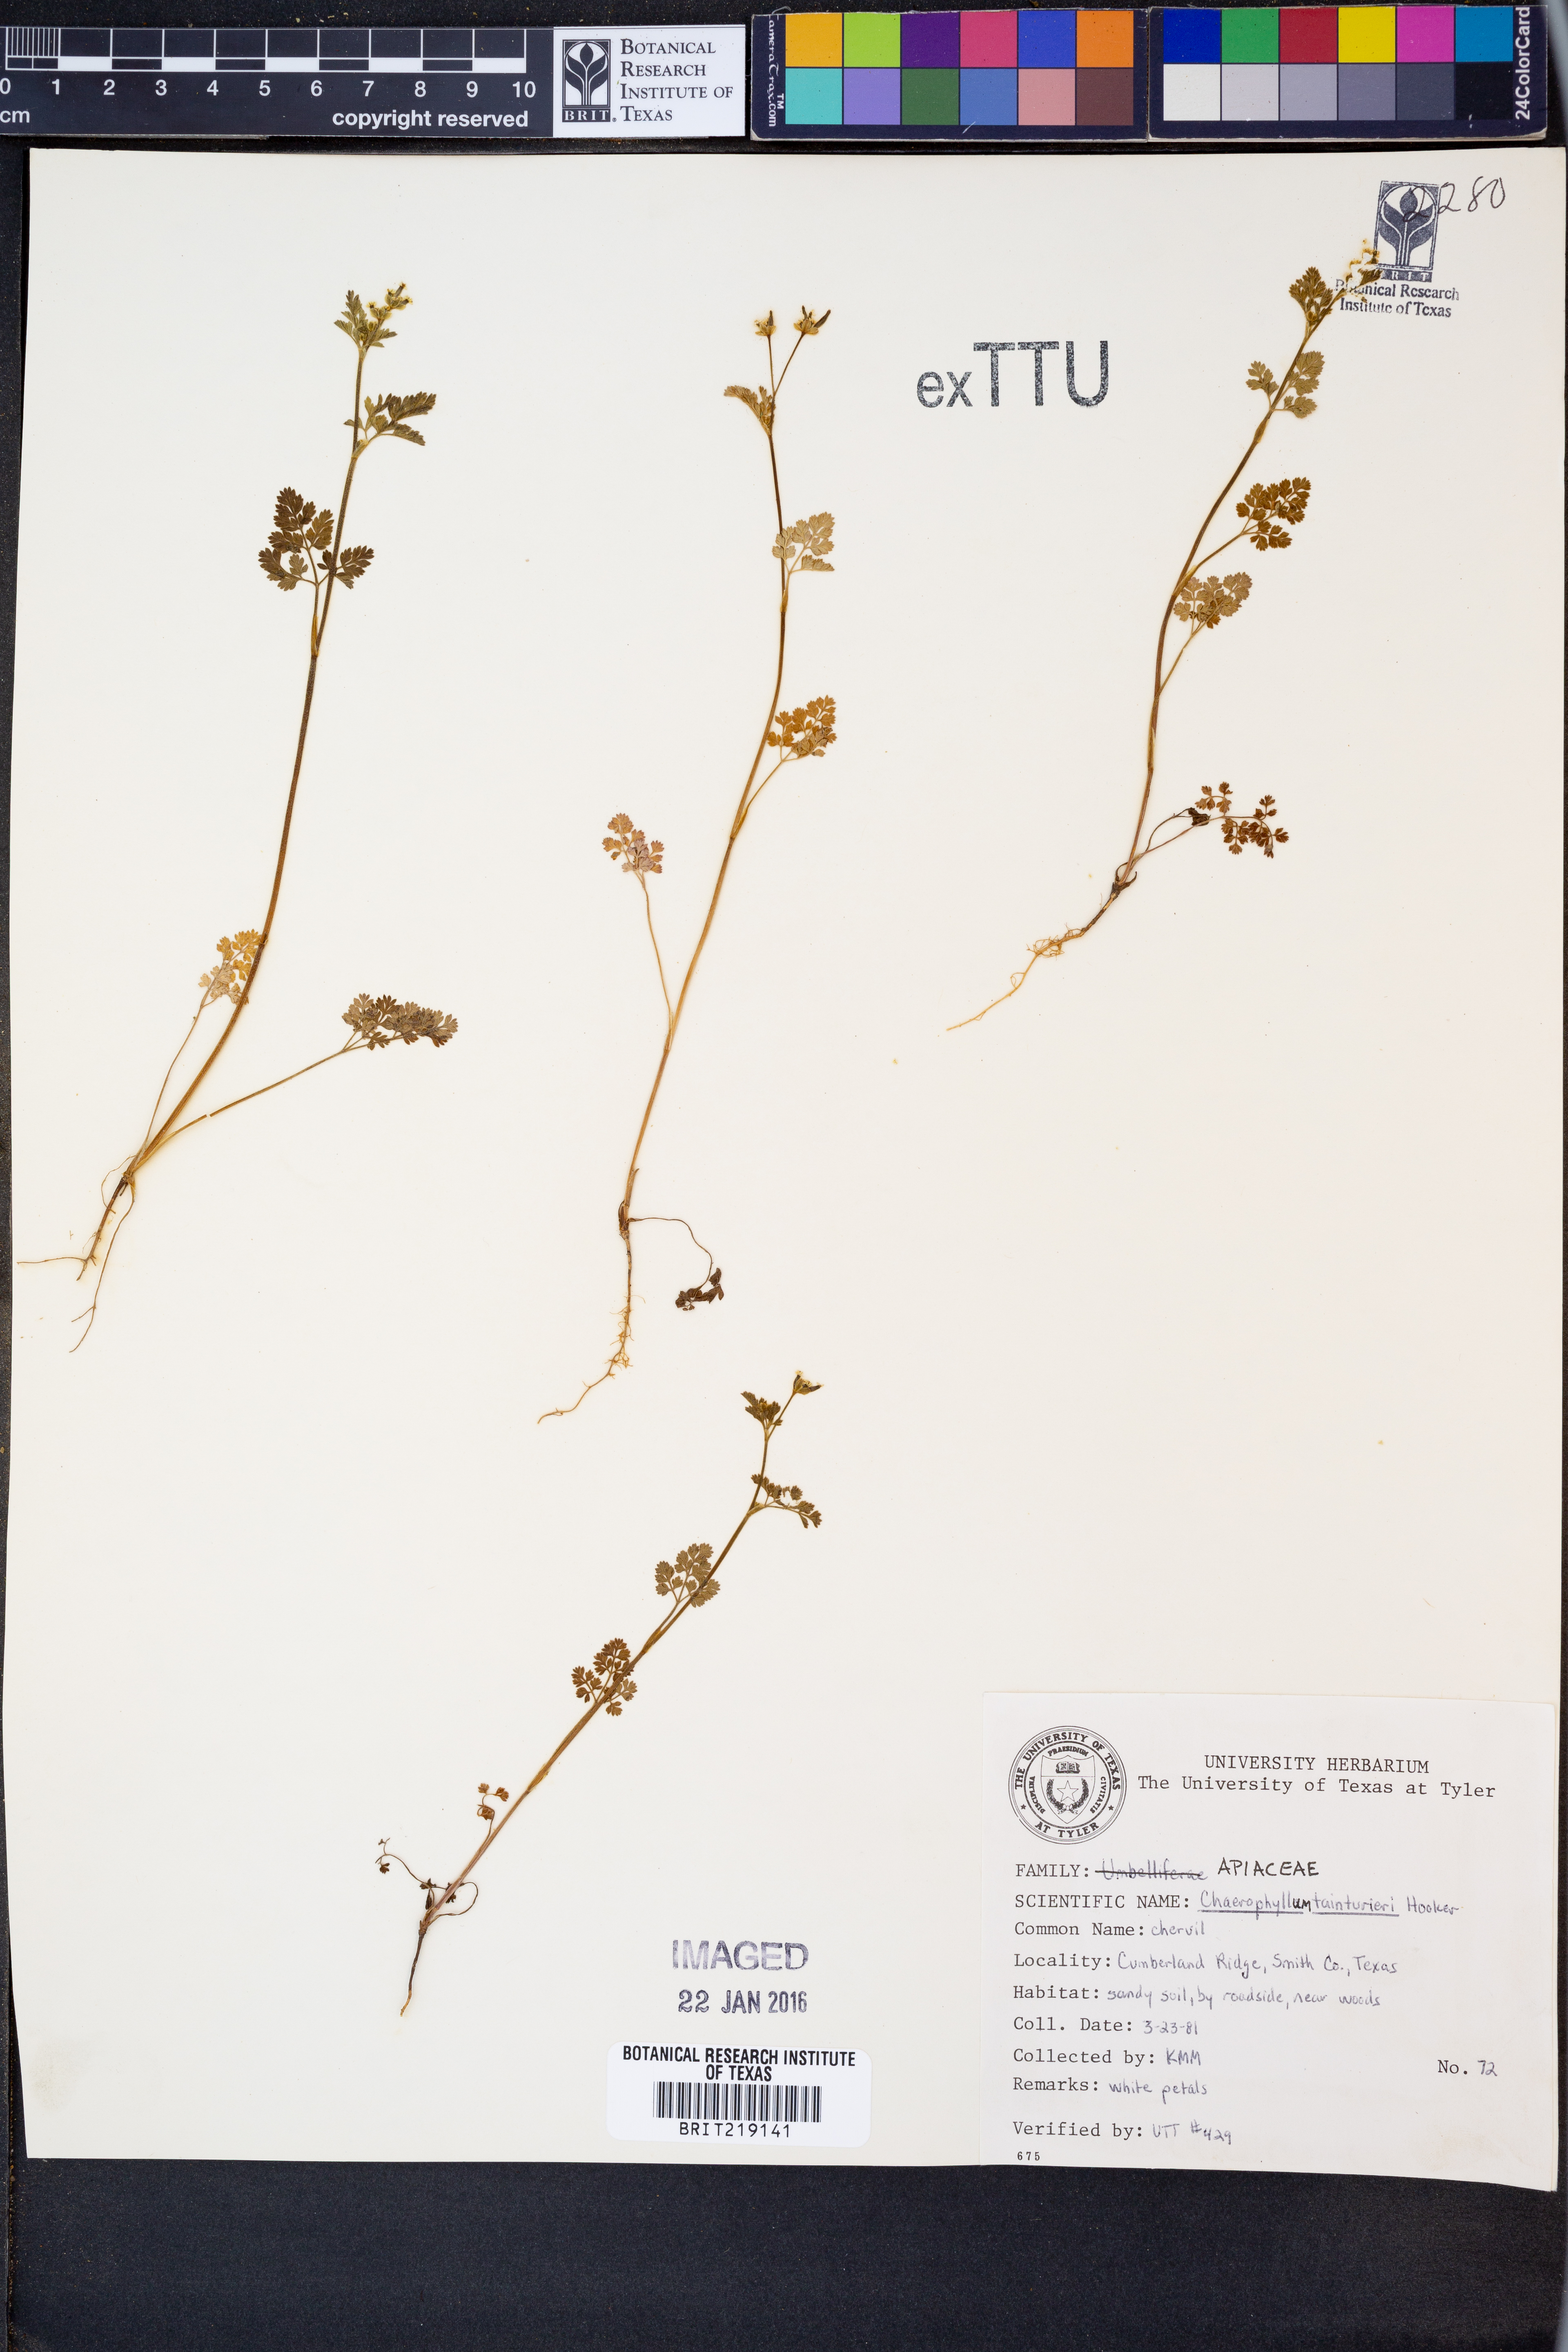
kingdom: Plantae
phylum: Tracheophyta
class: Magnoliopsida
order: Apiales
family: Apiaceae
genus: Chaerophyllum
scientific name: Chaerophyllum tainturieri
